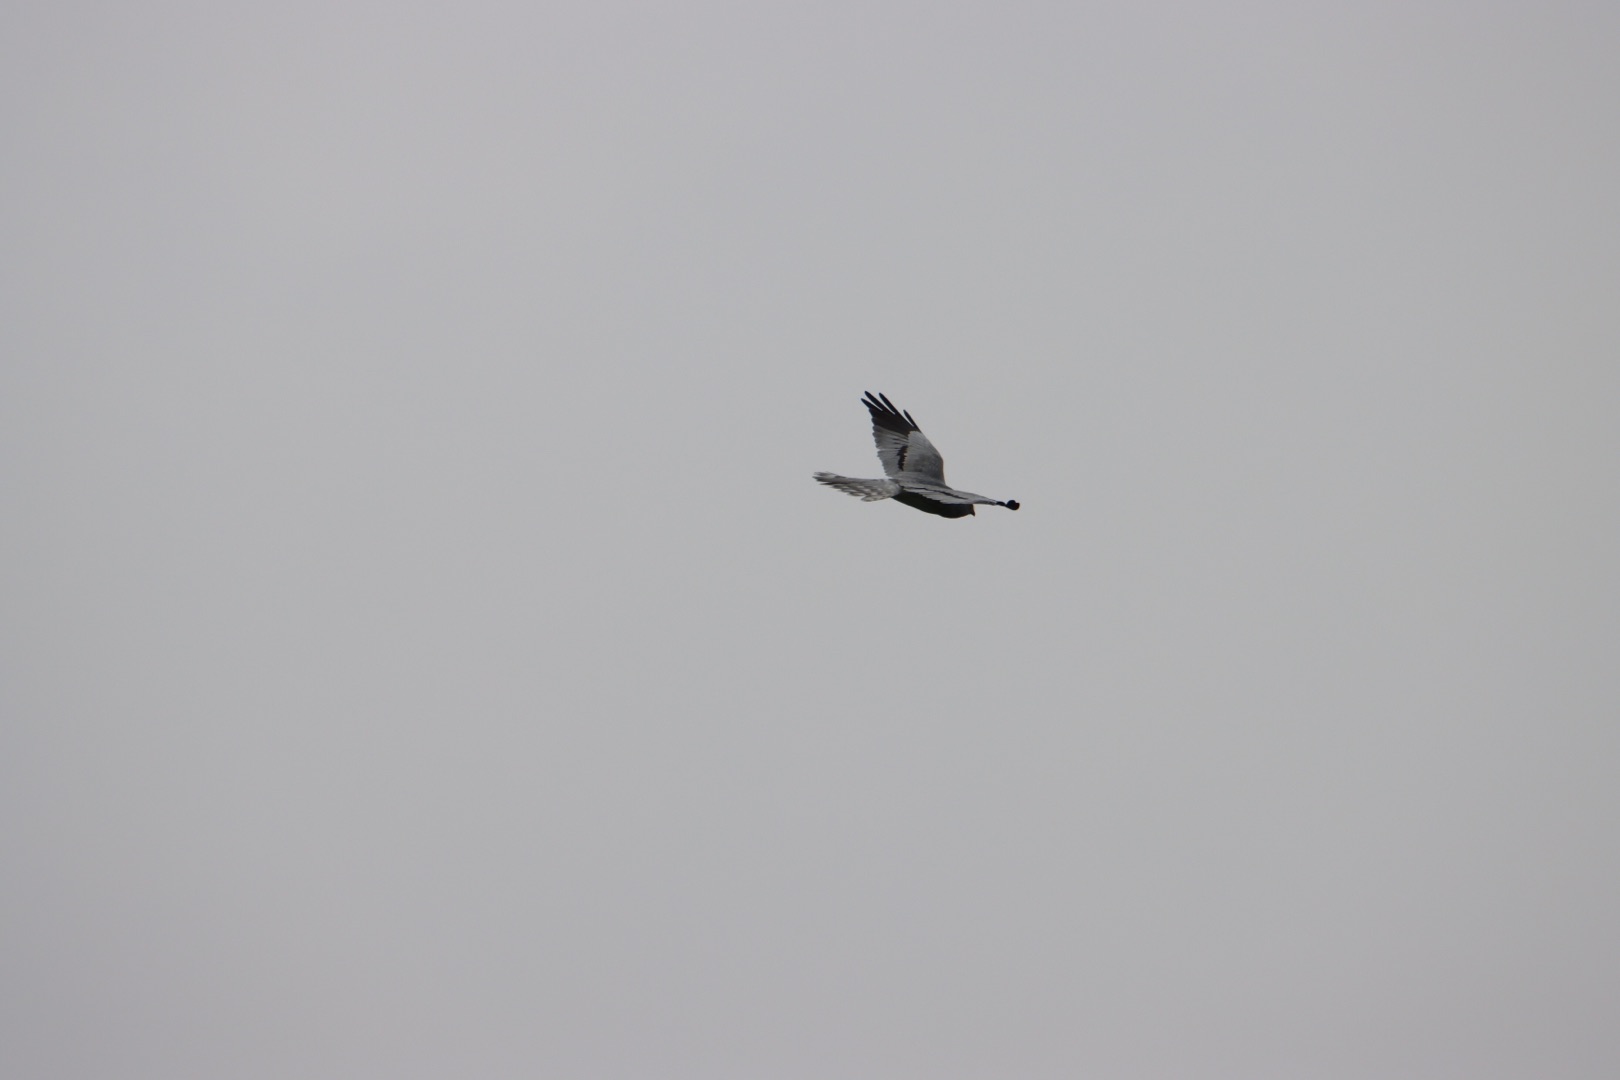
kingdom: Animalia
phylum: Chordata
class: Aves
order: Accipitriformes
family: Accipitridae
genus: Circus
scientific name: Circus pygargus
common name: Hedehøg
